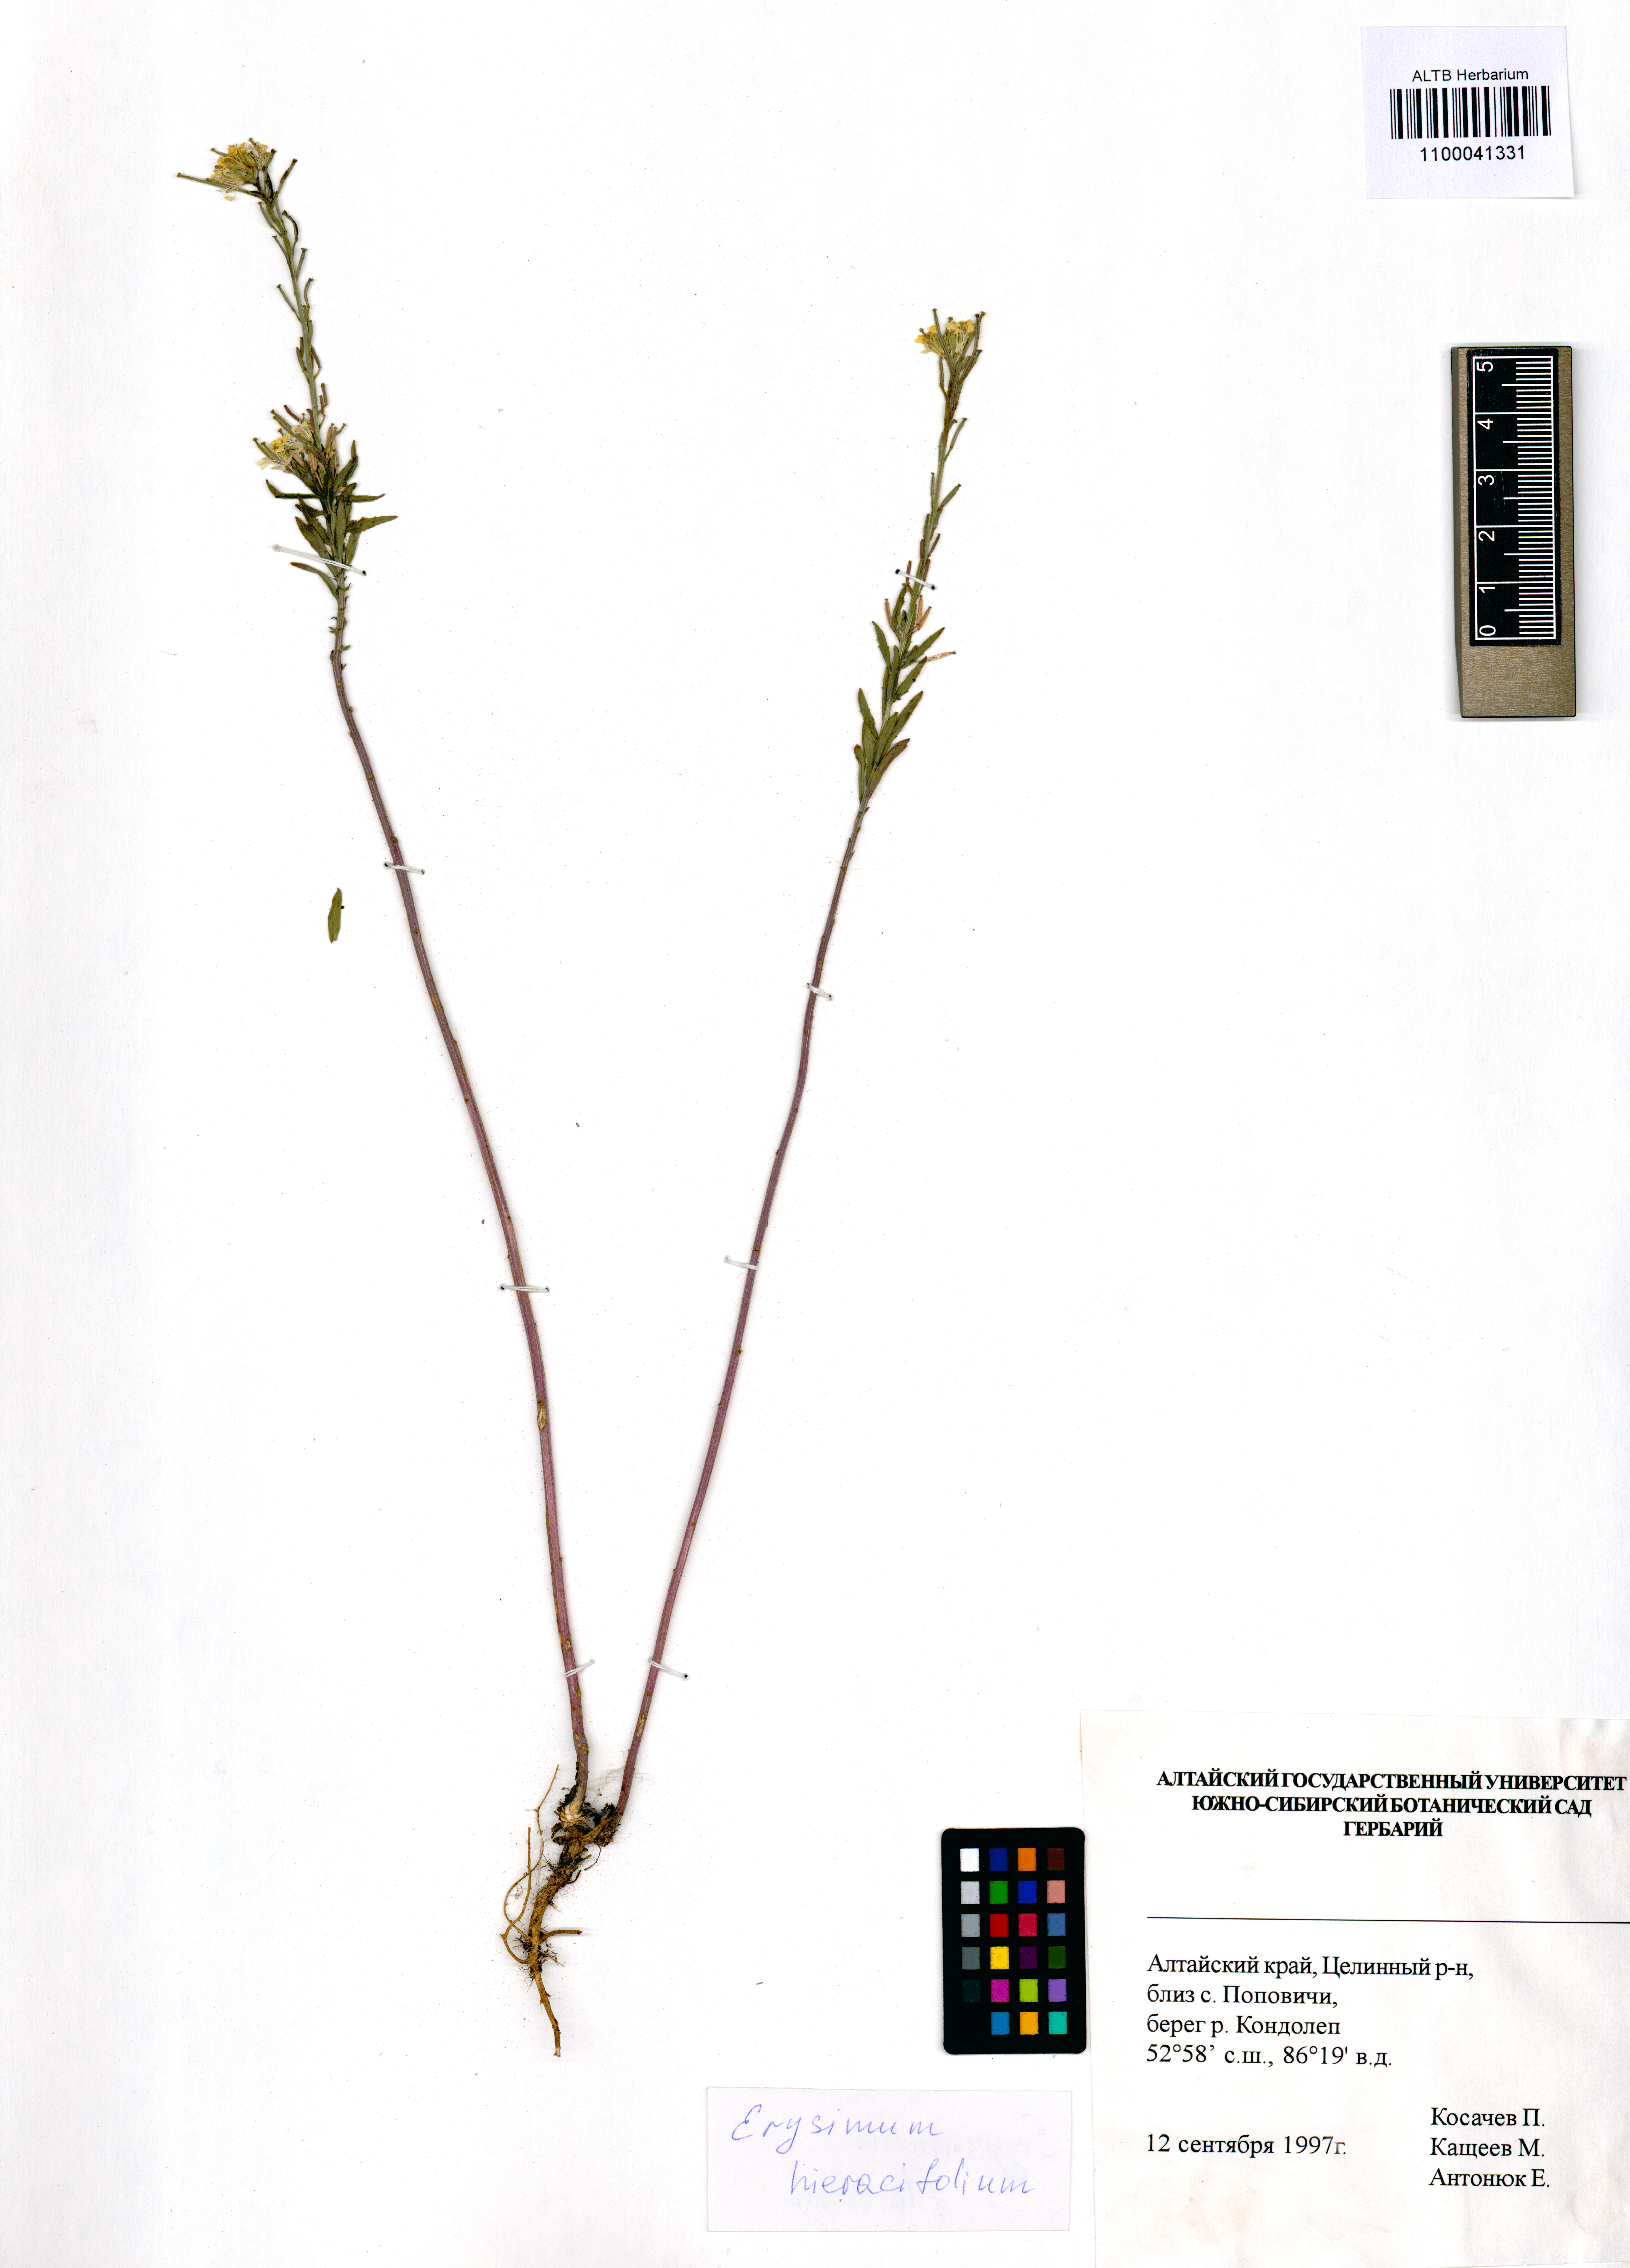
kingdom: Plantae
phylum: Tracheophyta
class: Magnoliopsida
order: Brassicales
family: Brassicaceae
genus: Erysimum
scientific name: Erysimum hieraciifolium
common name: European wallflower
